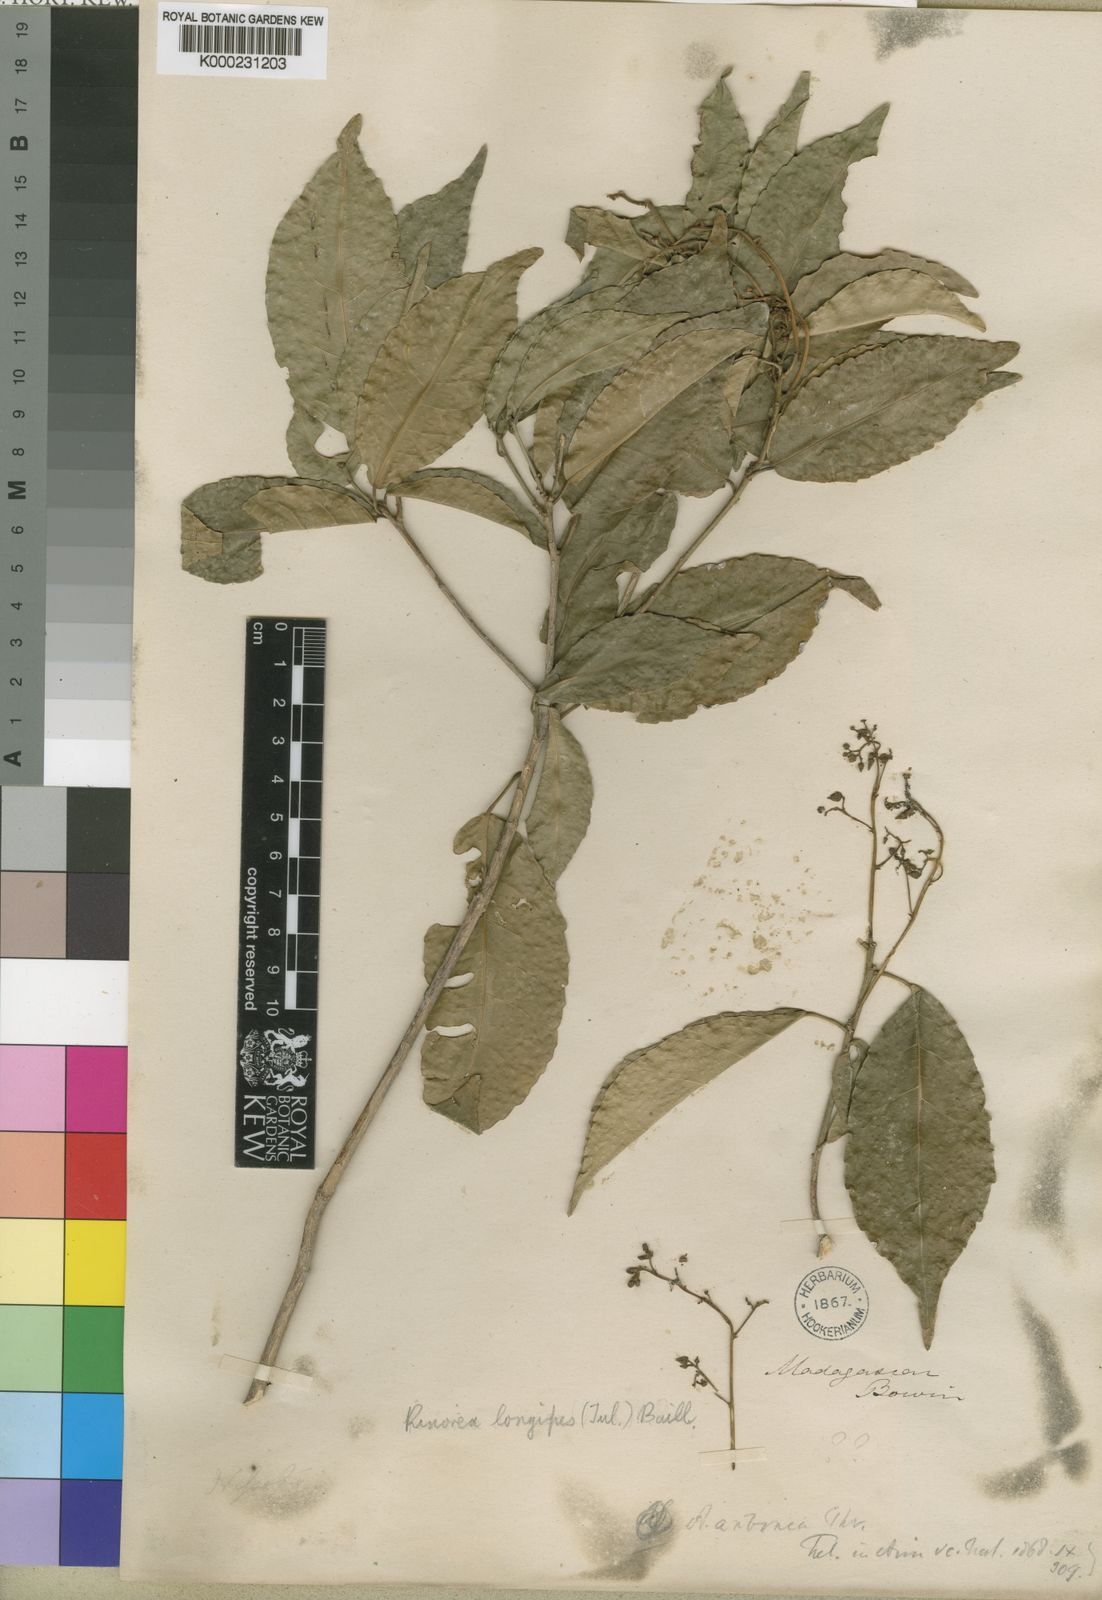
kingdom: Plantae
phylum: Tracheophyta
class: Magnoliopsida
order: Malpighiales
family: Violaceae
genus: Rinorea
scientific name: Rinorea longipes
